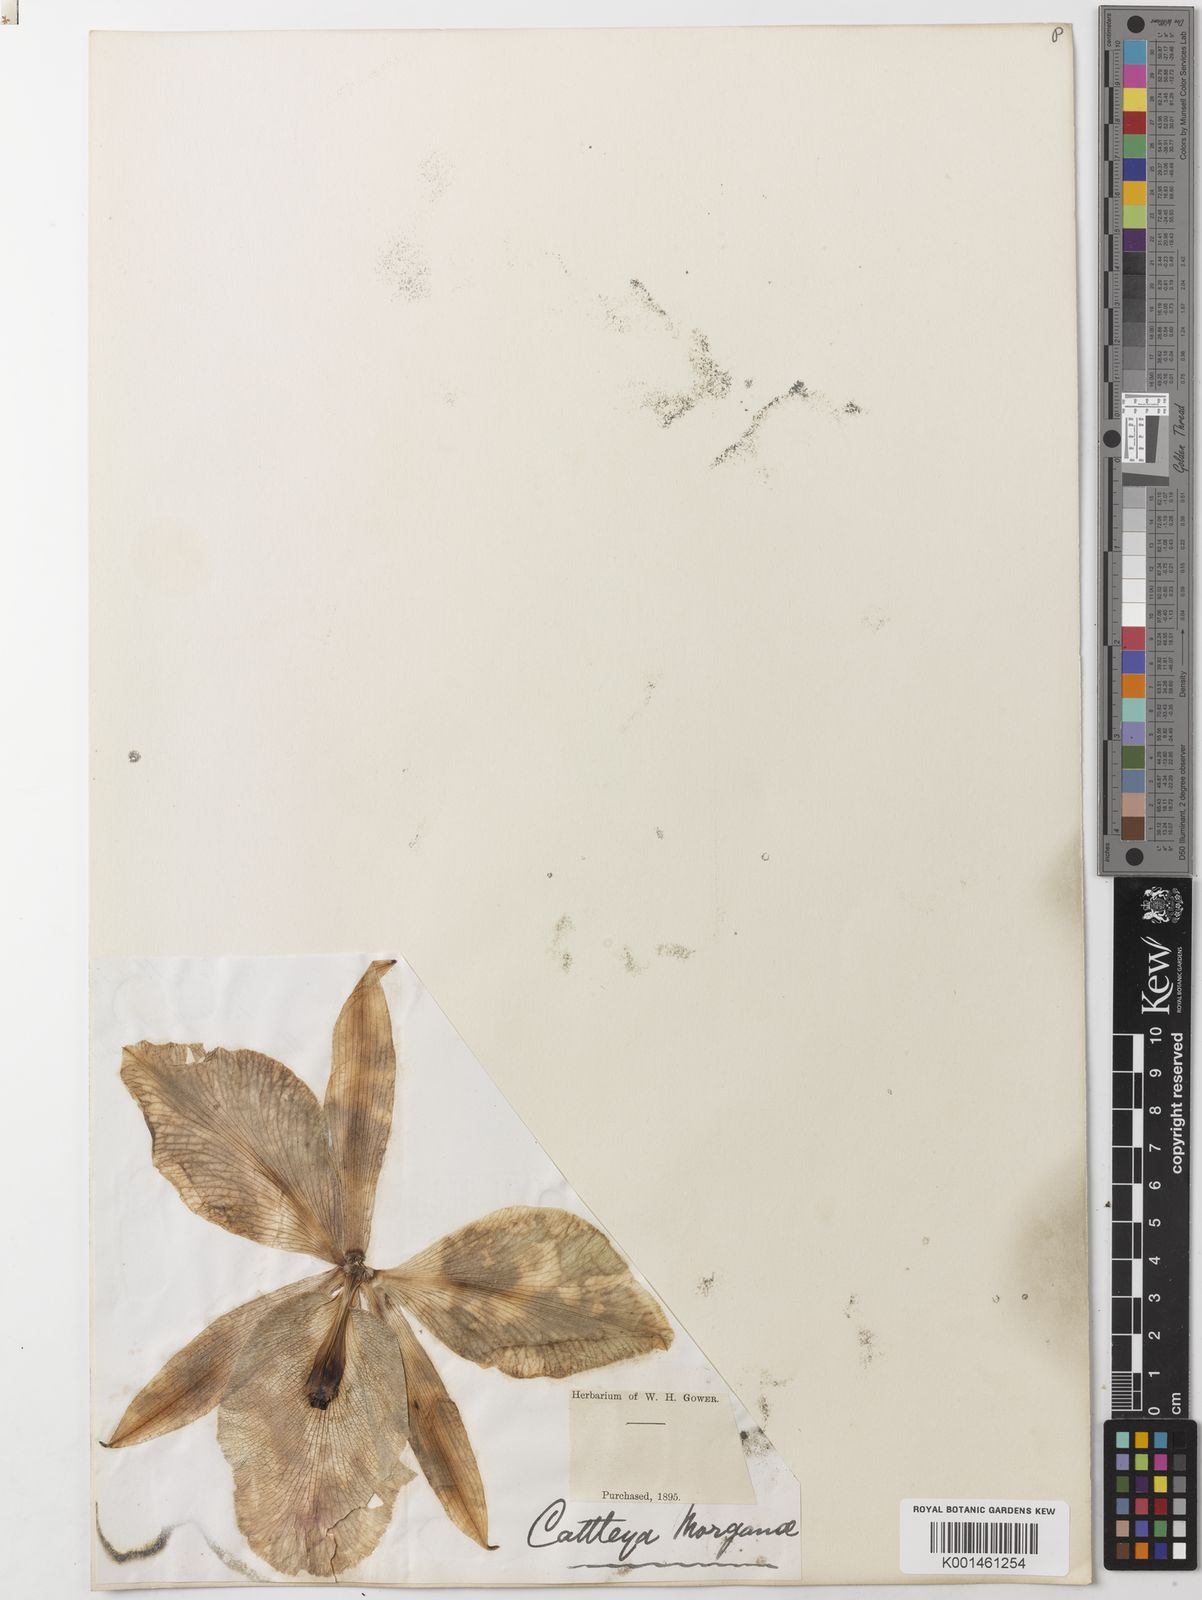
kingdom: Plantae
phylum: Tracheophyta
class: Liliopsida
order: Asparagales
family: Orchidaceae
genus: Cattleya
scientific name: Cattleya labiata
